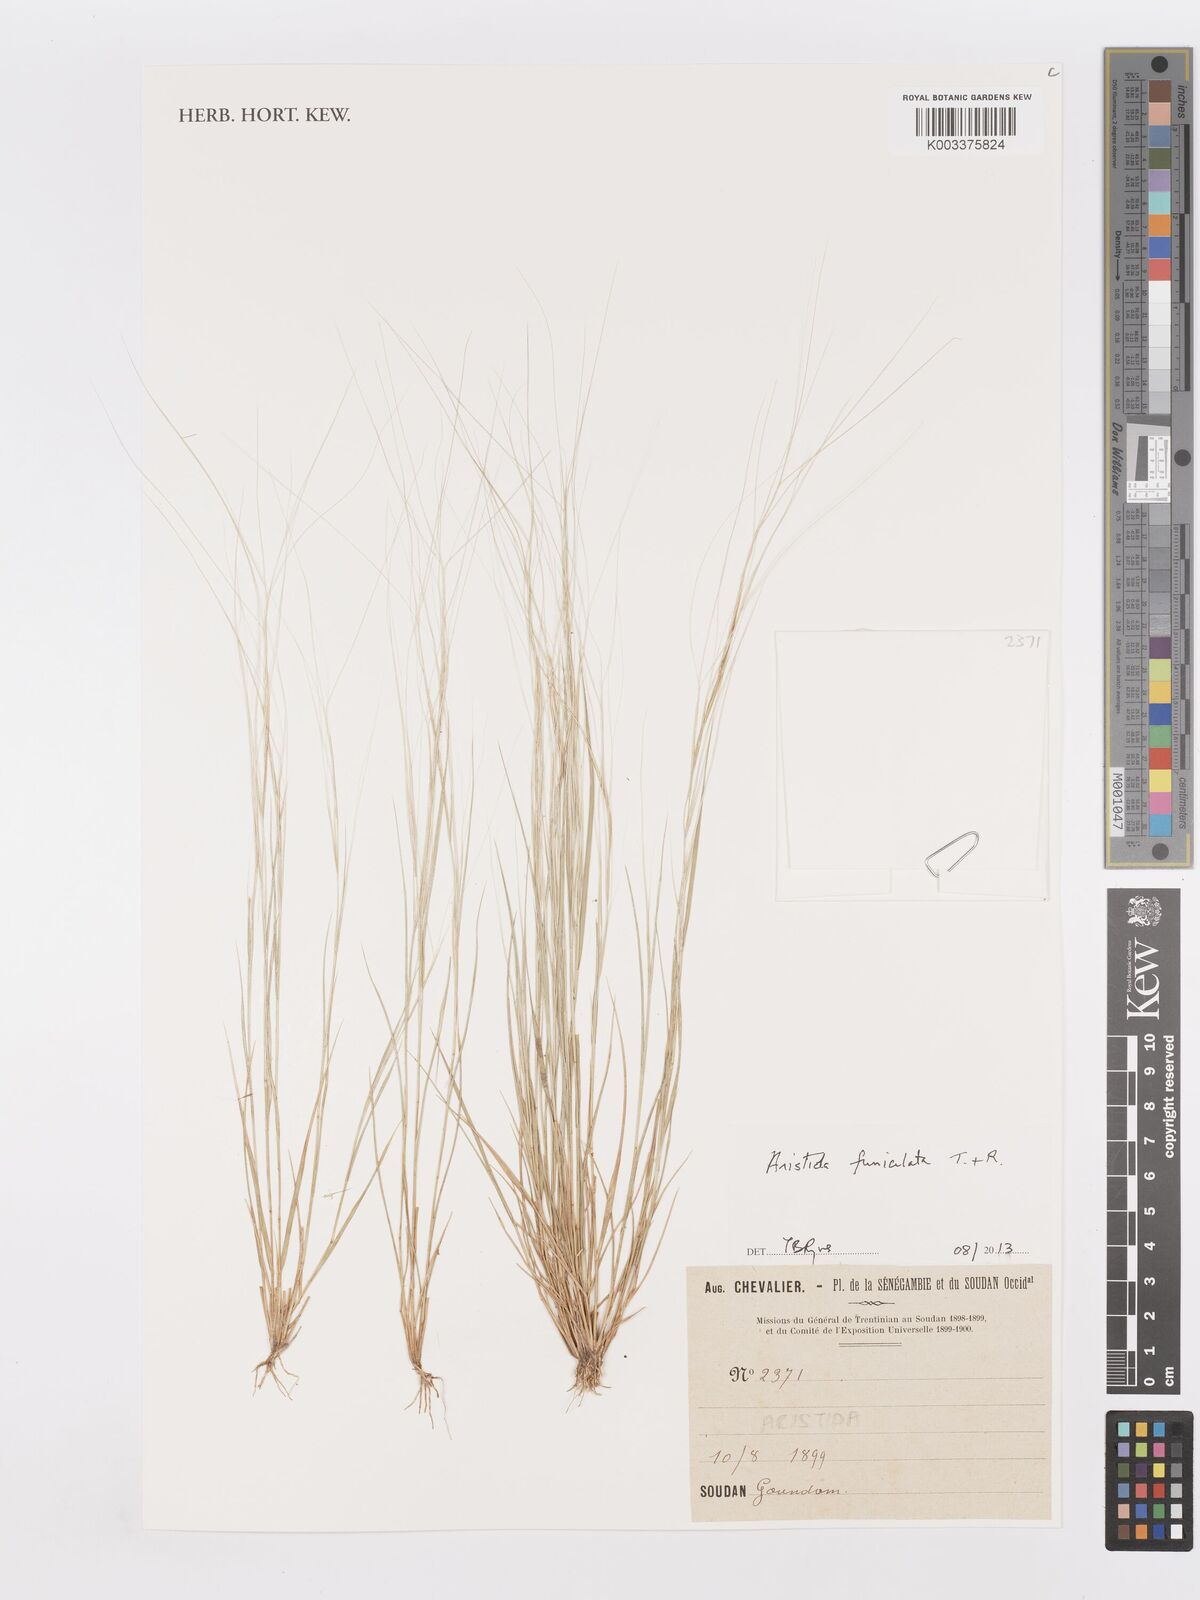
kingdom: Plantae
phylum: Tracheophyta
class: Liliopsida
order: Poales
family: Poaceae
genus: Aristida
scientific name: Aristida funiculata
